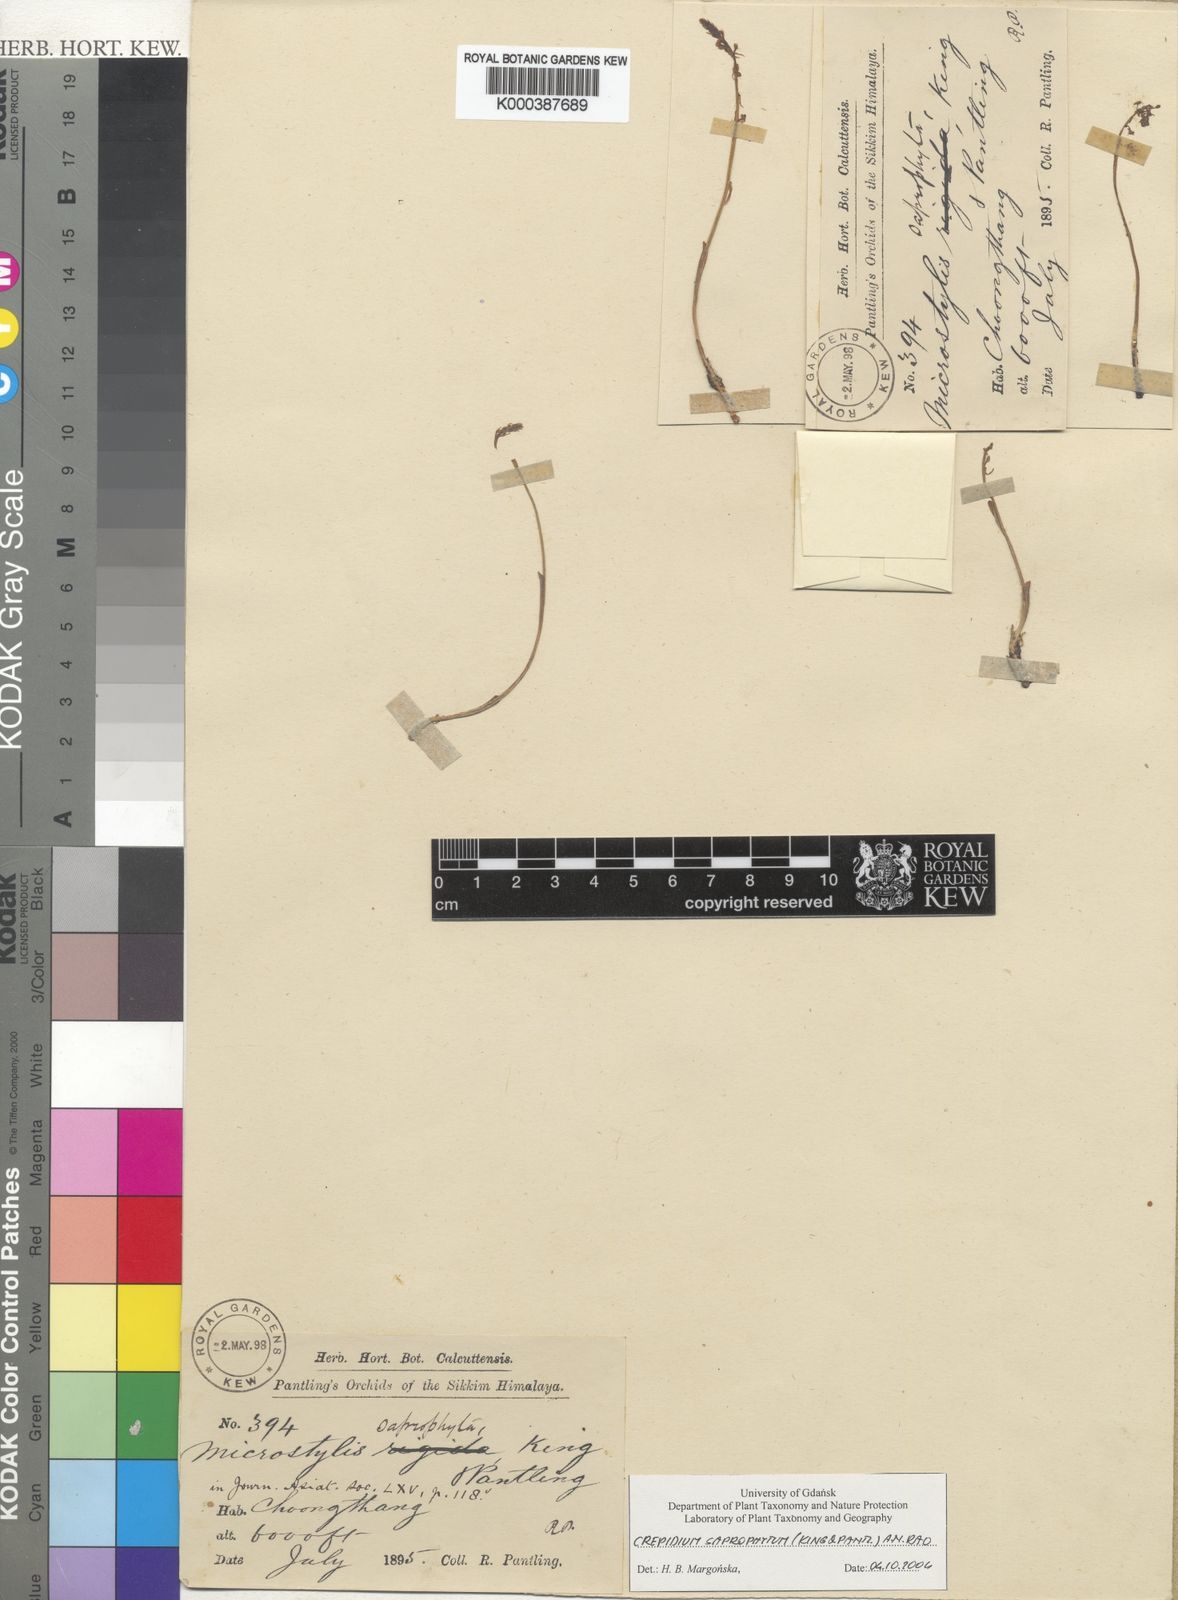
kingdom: Plantae
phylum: Tracheophyta
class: Liliopsida
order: Asparagales
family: Orchidaceae
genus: Crepidium
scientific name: Crepidium saprophytum
